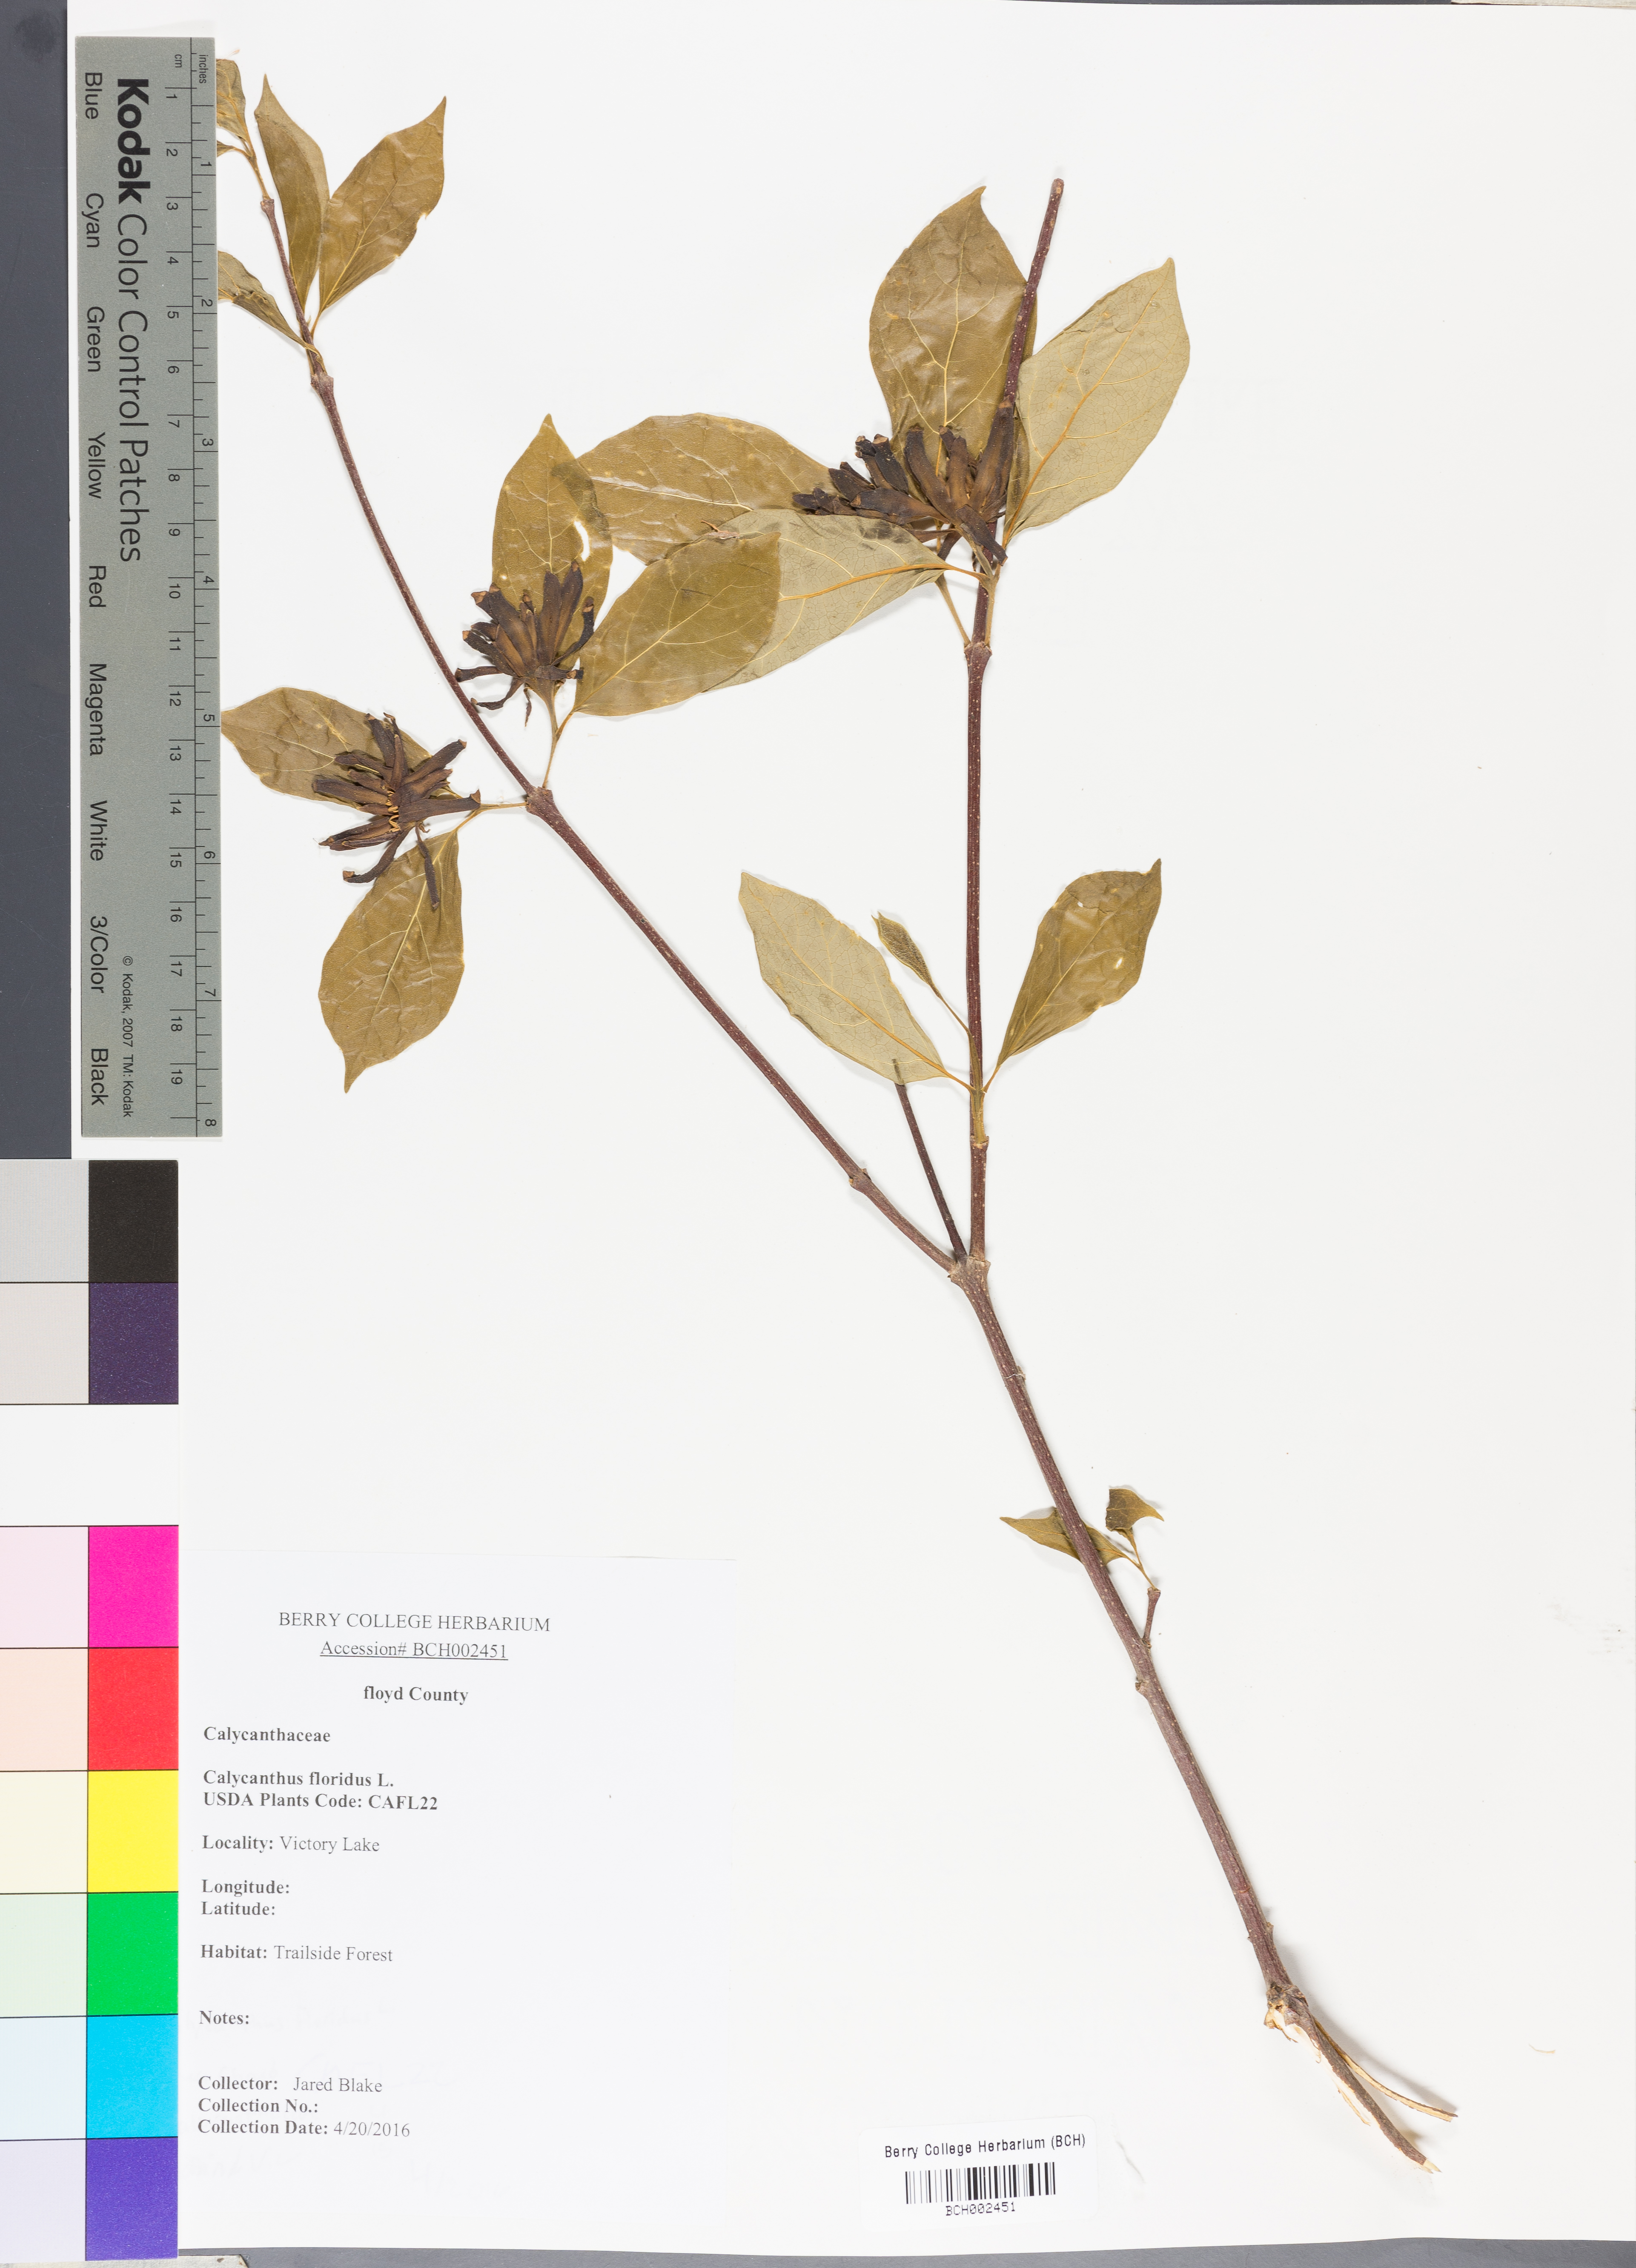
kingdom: Plantae
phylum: Tracheophyta
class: Magnoliopsida
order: Laurales
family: Calycanthaceae
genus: Calycanthus
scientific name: Calycanthus floridus
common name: Carolina-allspice
